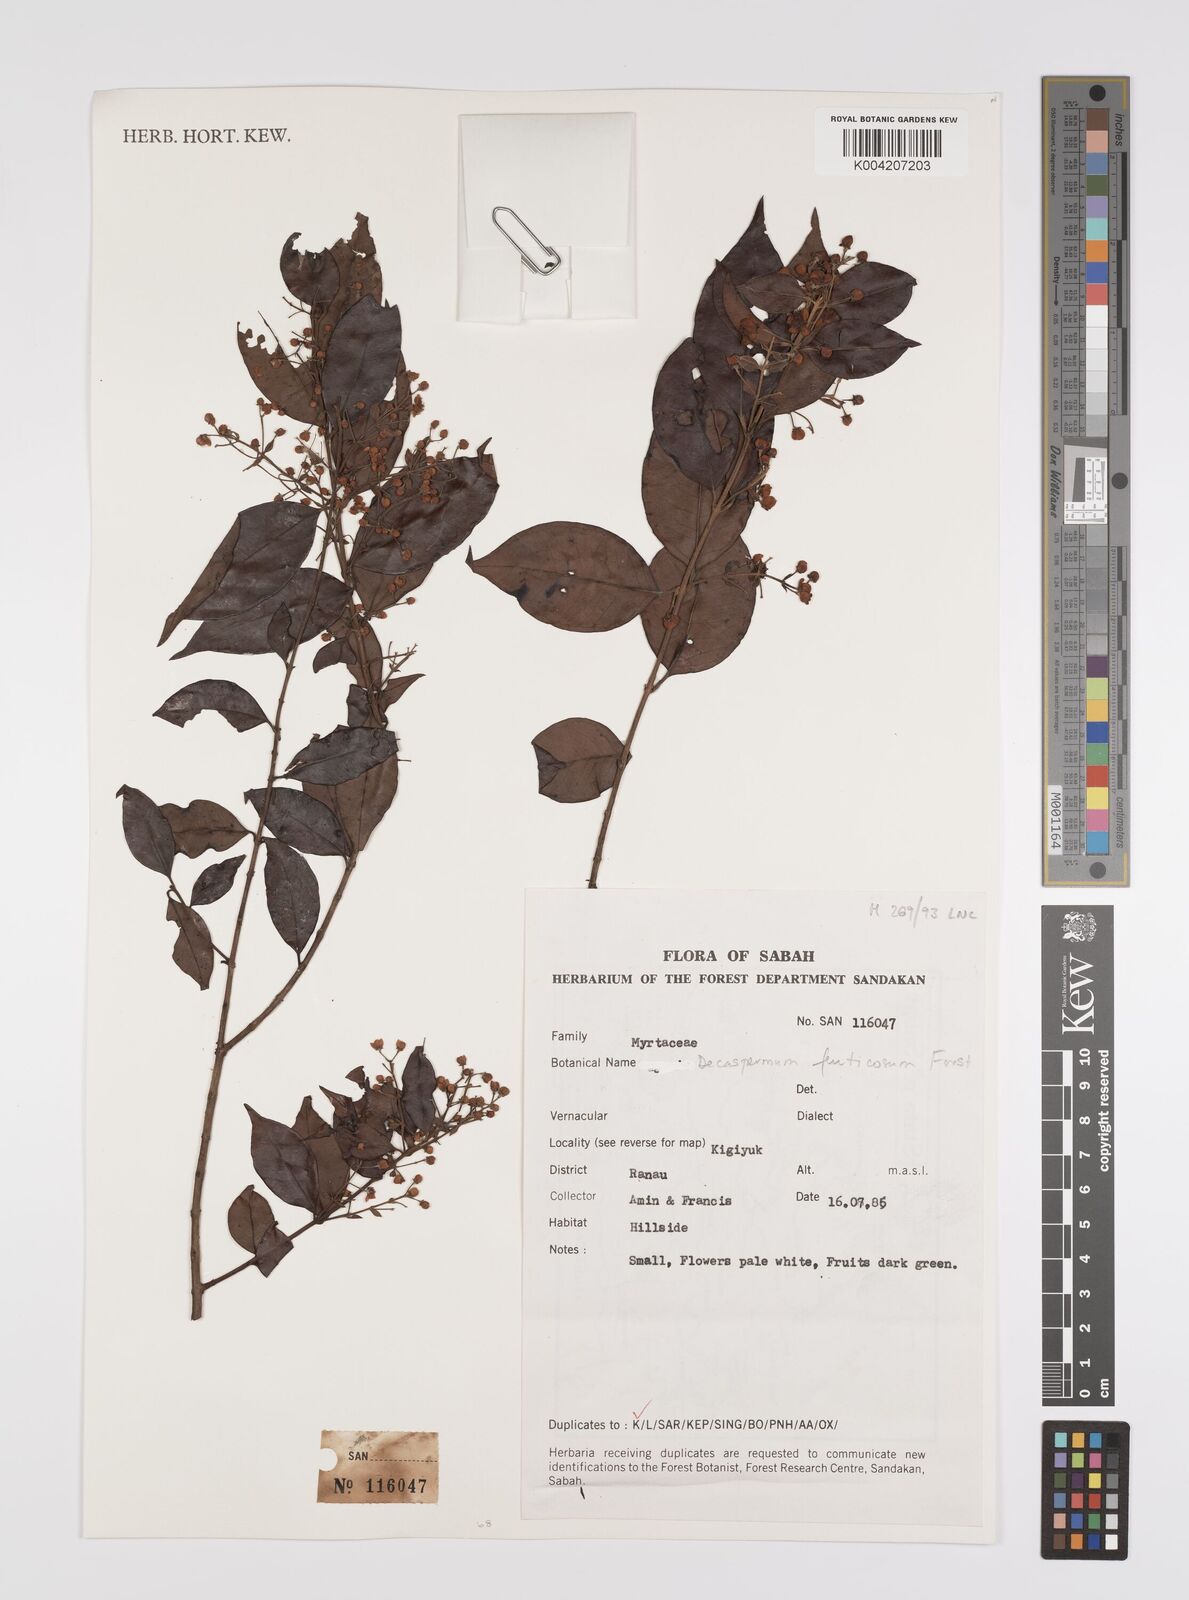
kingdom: Plantae
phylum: Tracheophyta
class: Magnoliopsida
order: Myrtales
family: Myrtaceae
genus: Decaspermum
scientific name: Decaspermum parviflorum
